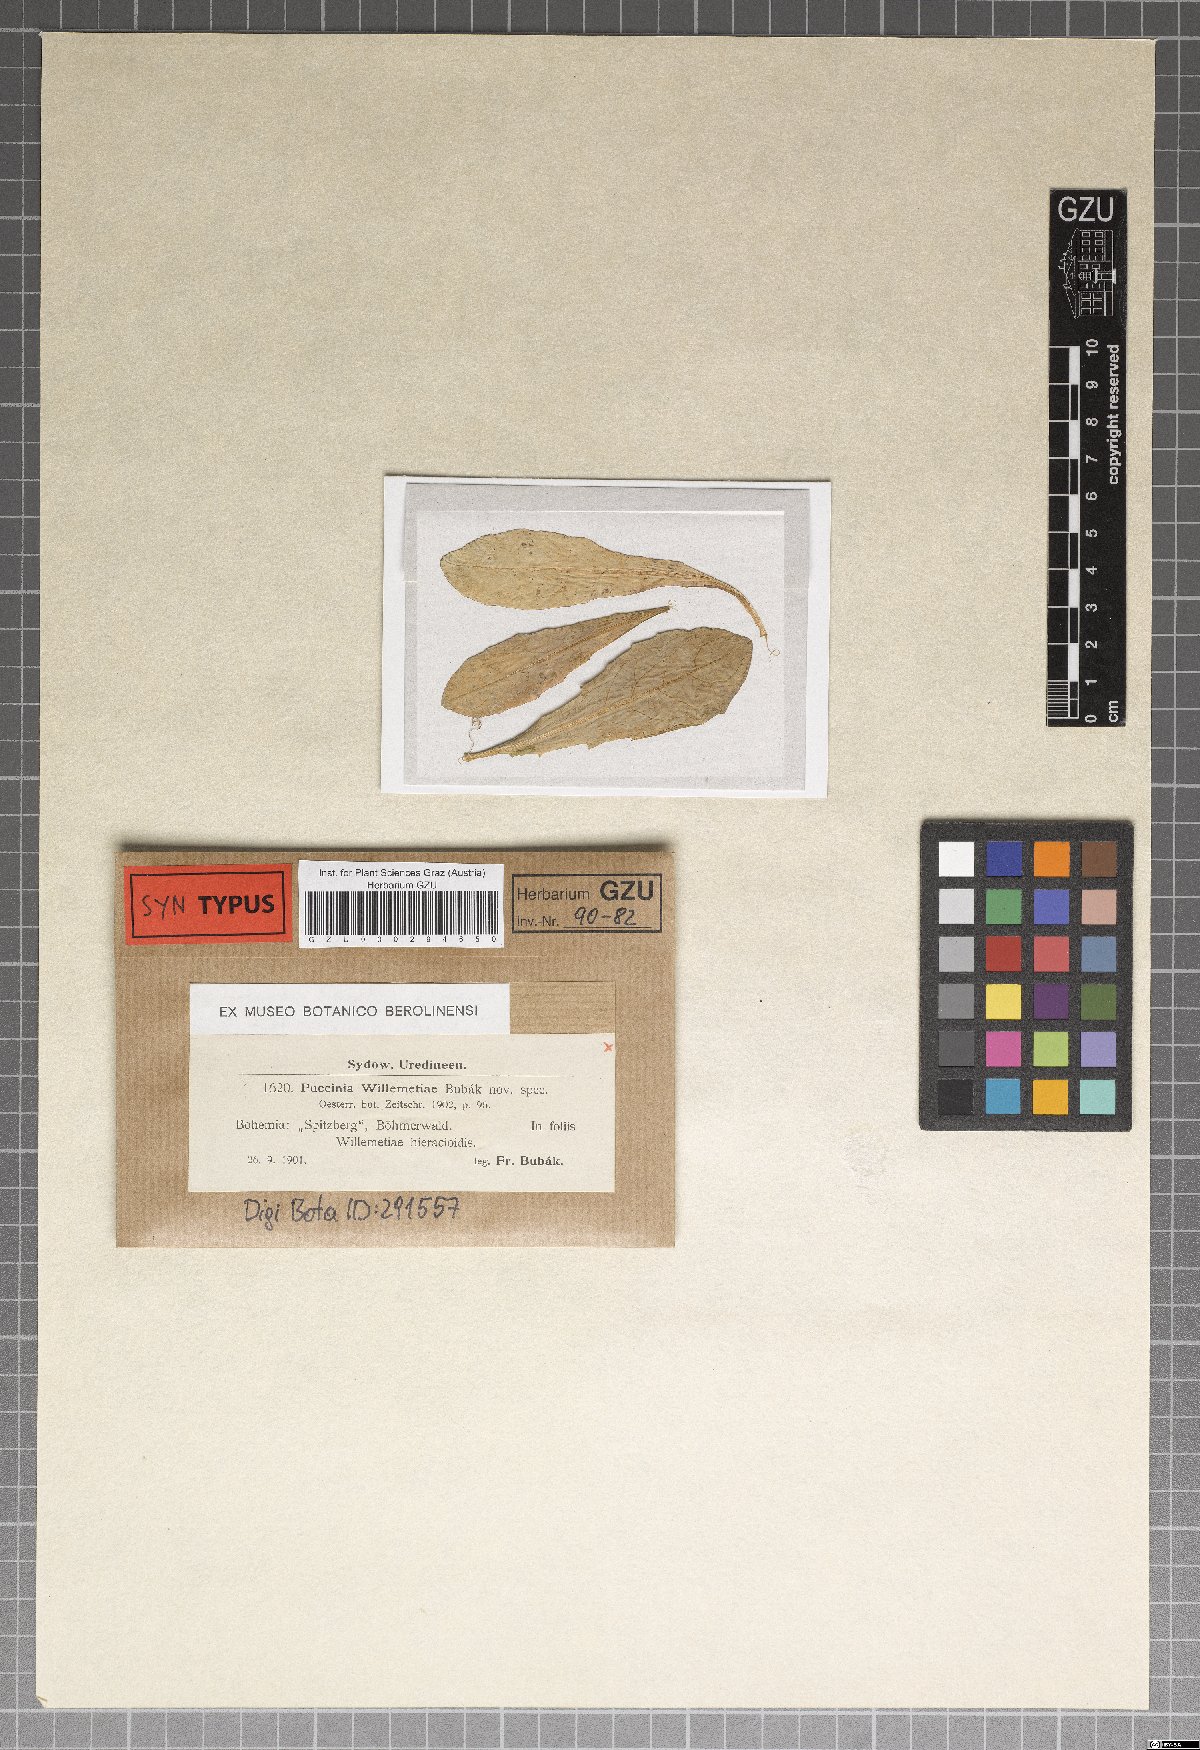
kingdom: Fungi
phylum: Basidiomycota
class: Pucciniomycetes
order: Pucciniales
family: Pucciniaceae
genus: Puccinia
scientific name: Puccinia willemetiae
